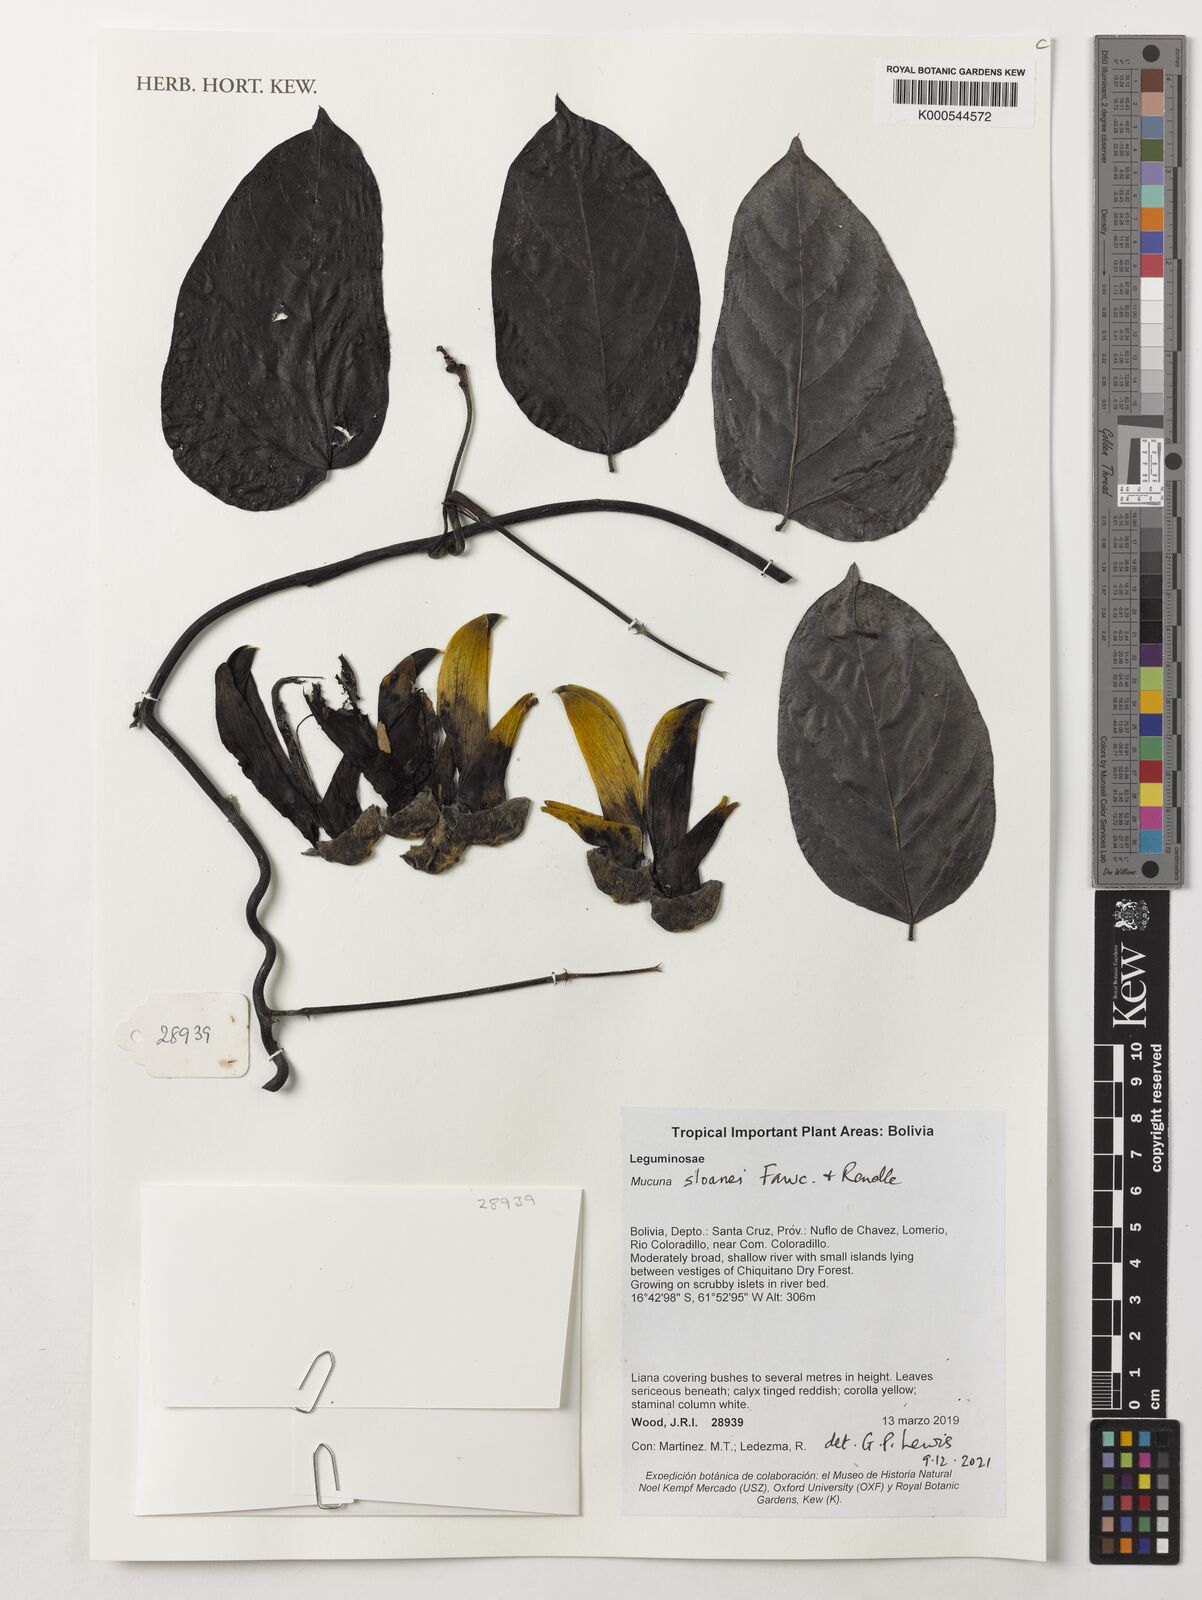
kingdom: Plantae
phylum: Tracheophyta
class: Magnoliopsida
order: Fabales
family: Fabaceae
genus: Mucuna
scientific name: Mucuna sloanei
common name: Horse-eye bean
